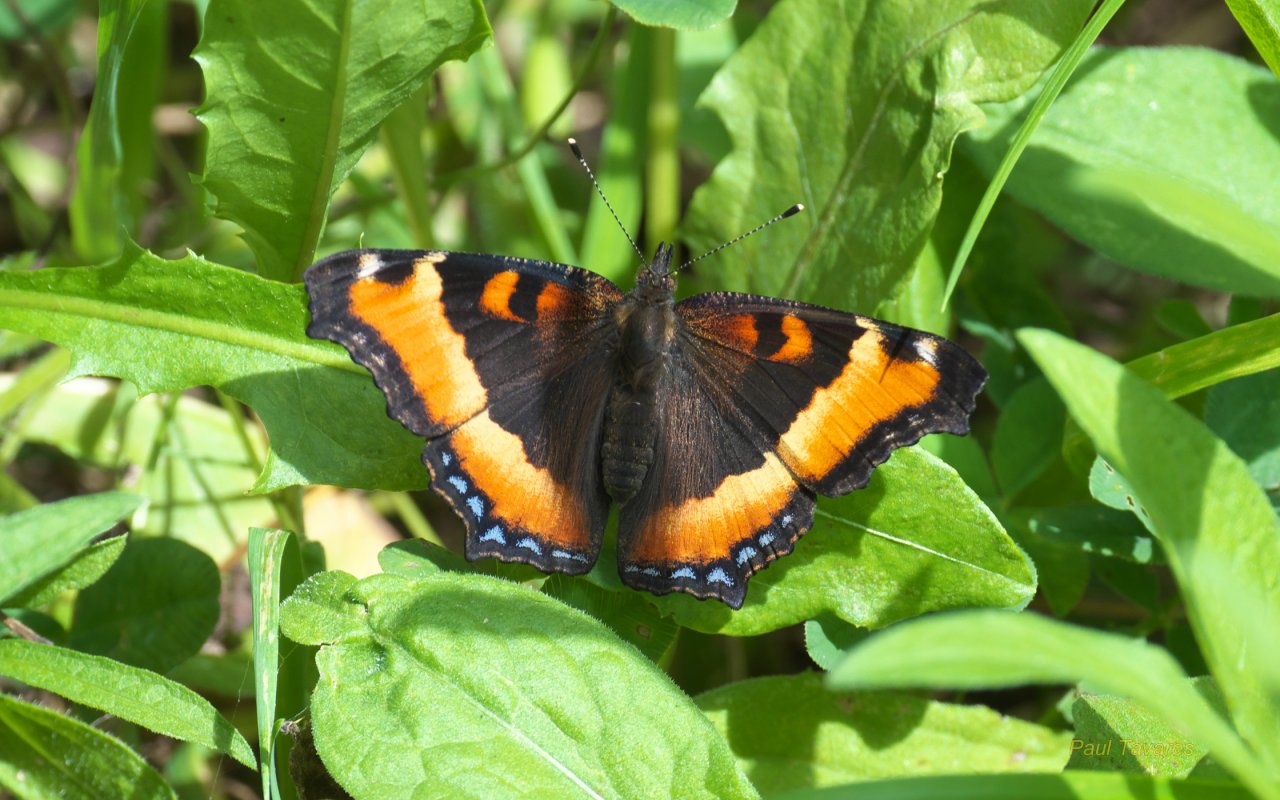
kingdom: Animalia
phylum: Arthropoda
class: Insecta
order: Lepidoptera
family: Nymphalidae
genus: Aglais
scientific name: Aglais milberti
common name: Milbert's Tortoiseshell
